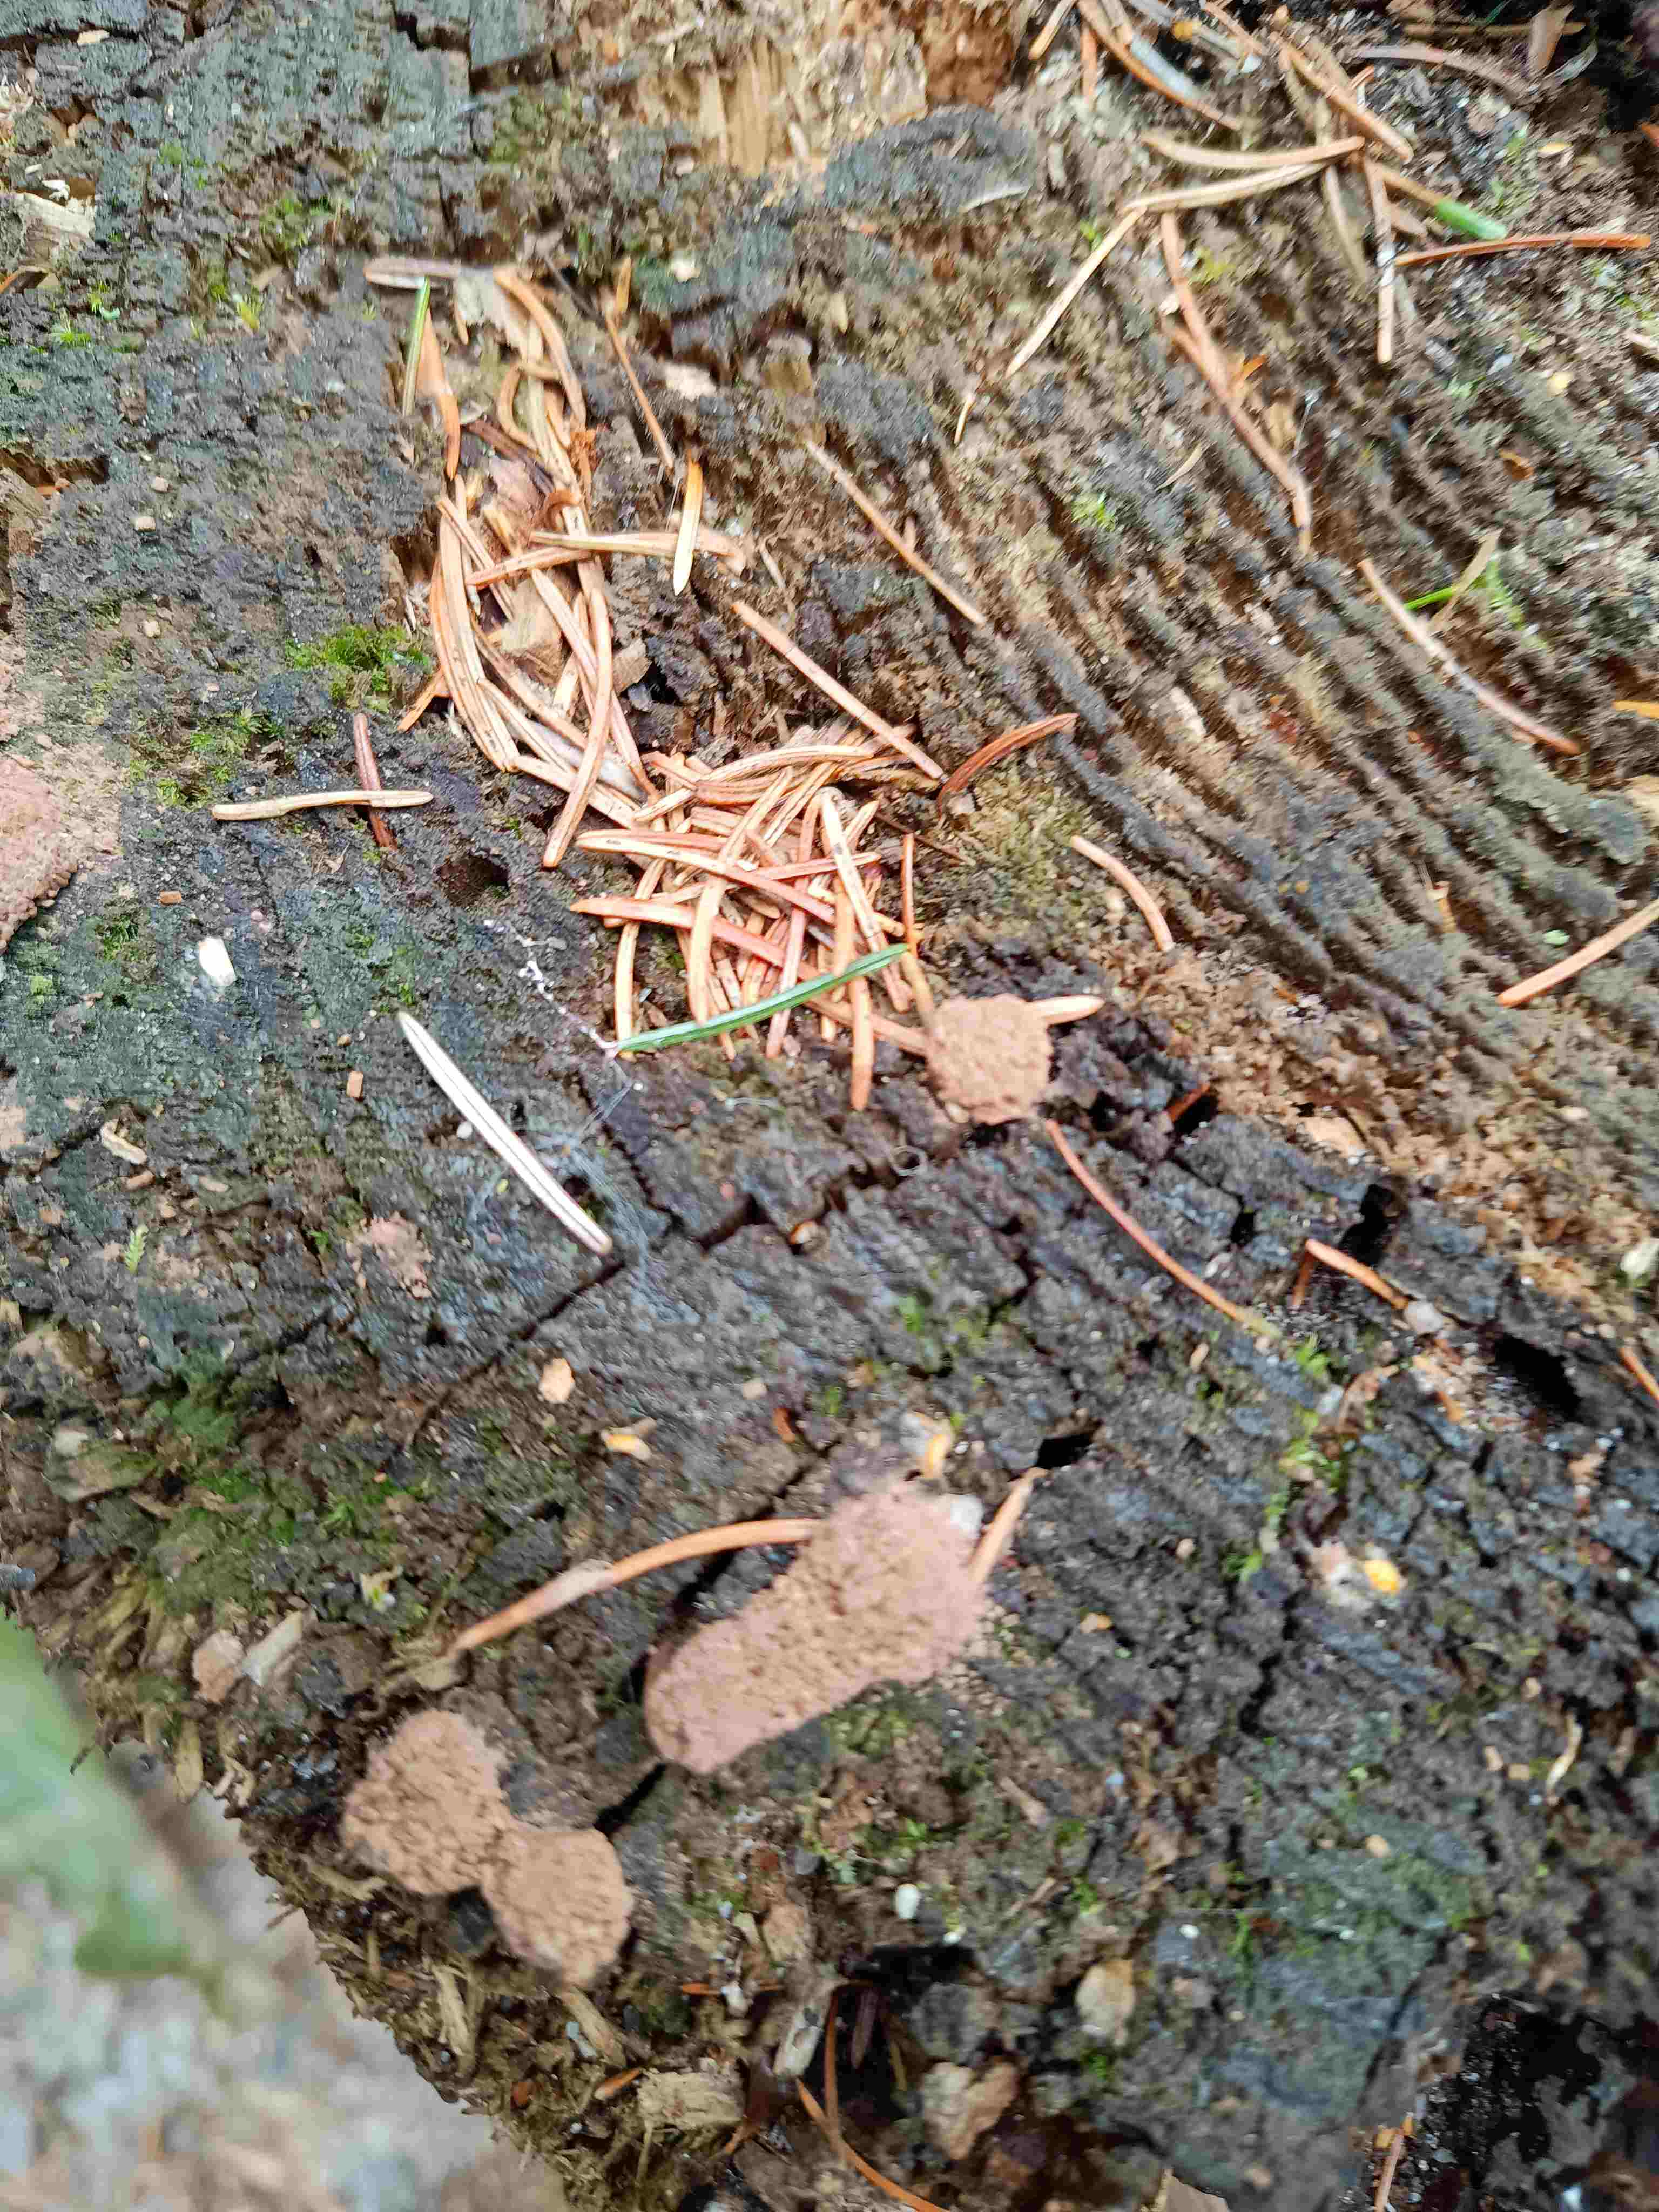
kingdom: Protozoa
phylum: Mycetozoa
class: Myxomycetes
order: Cribrariales
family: Tubiferaceae
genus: Tubifera
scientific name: Tubifera
